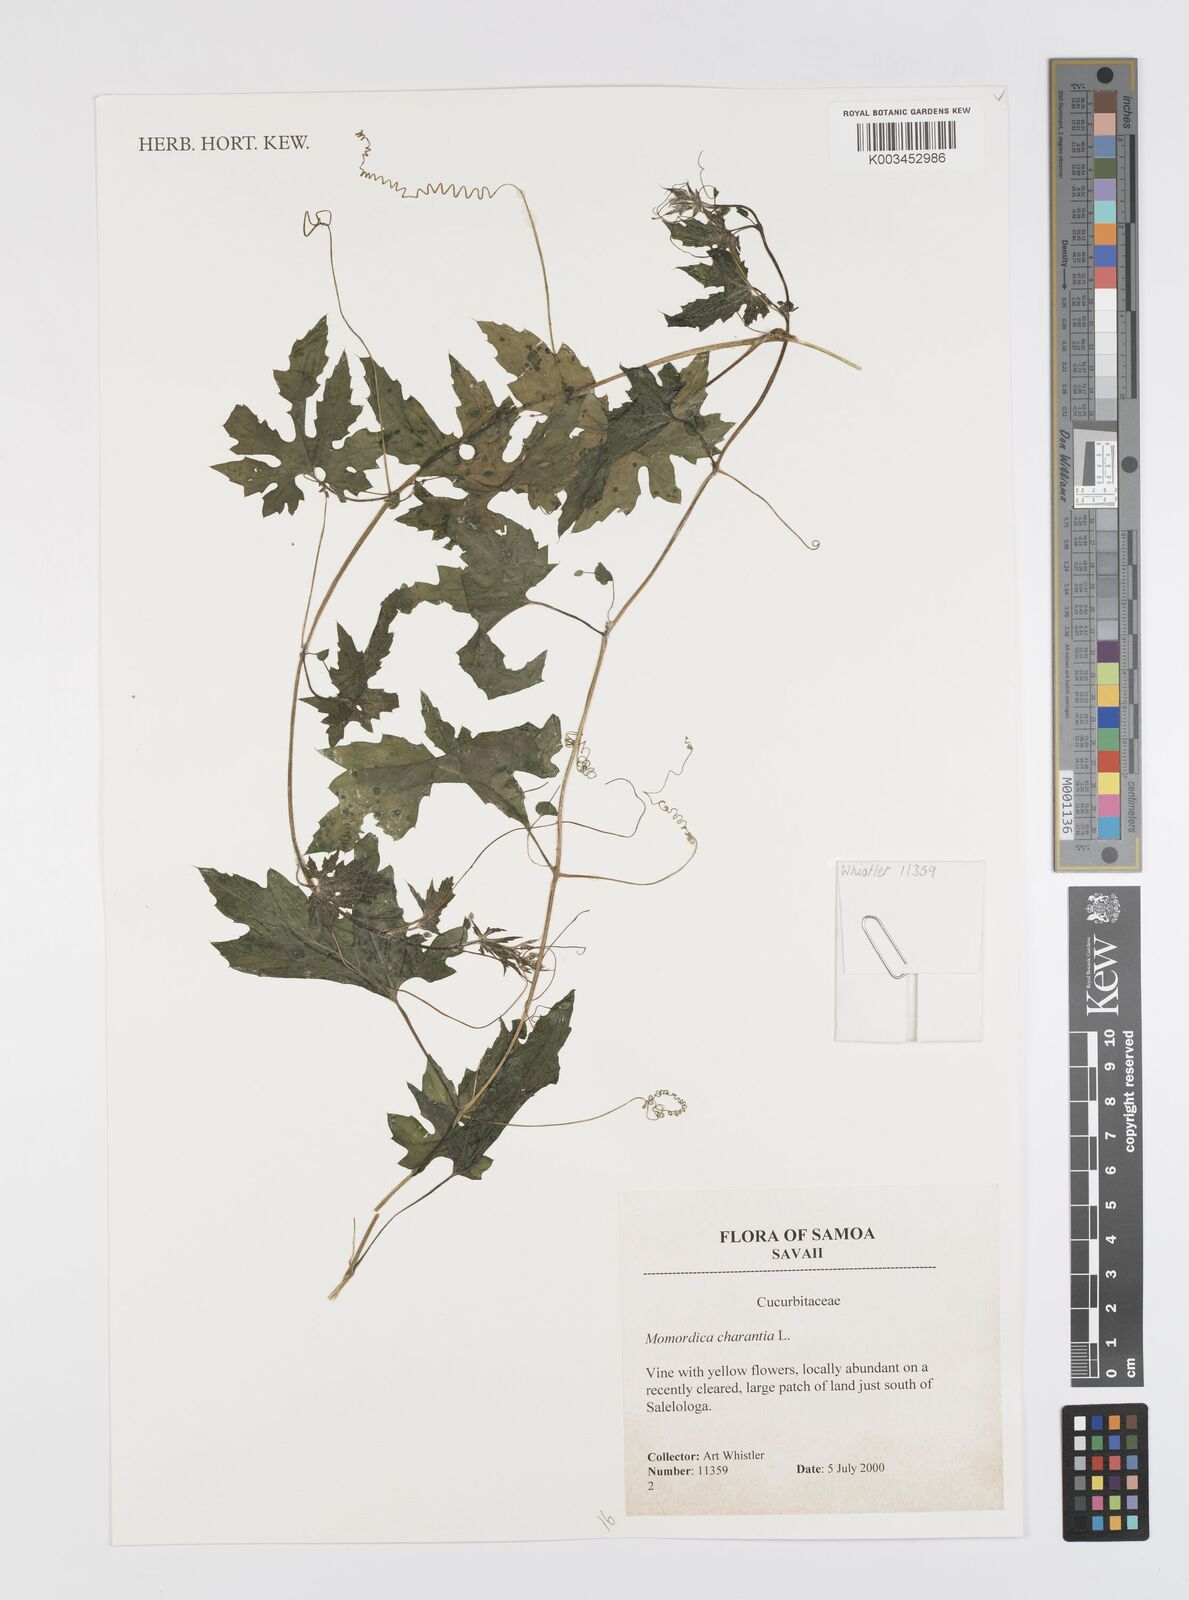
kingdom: Plantae
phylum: Tracheophyta
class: Magnoliopsida
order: Cucurbitales
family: Cucurbitaceae
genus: Momordica
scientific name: Momordica charantia
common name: Balsampear
